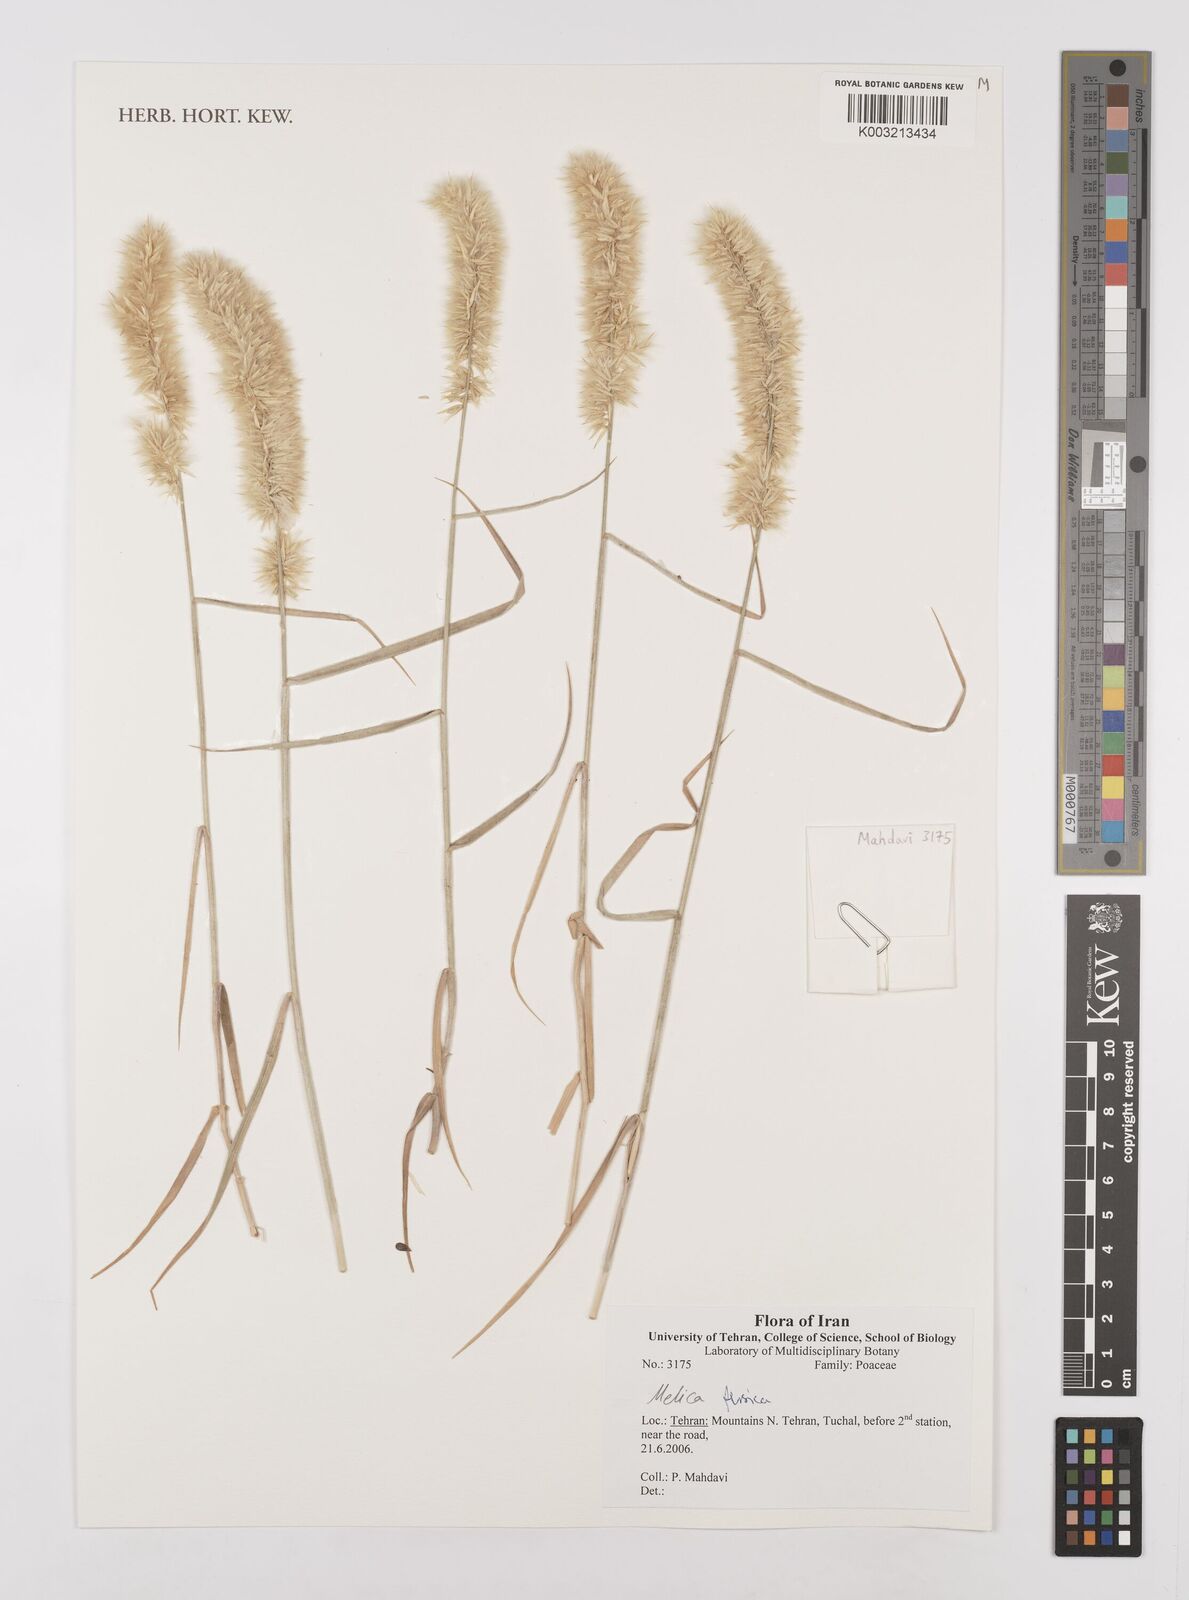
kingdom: Plantae
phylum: Tracheophyta
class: Liliopsida
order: Poales
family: Poaceae
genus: Melica
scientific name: Melica persica
